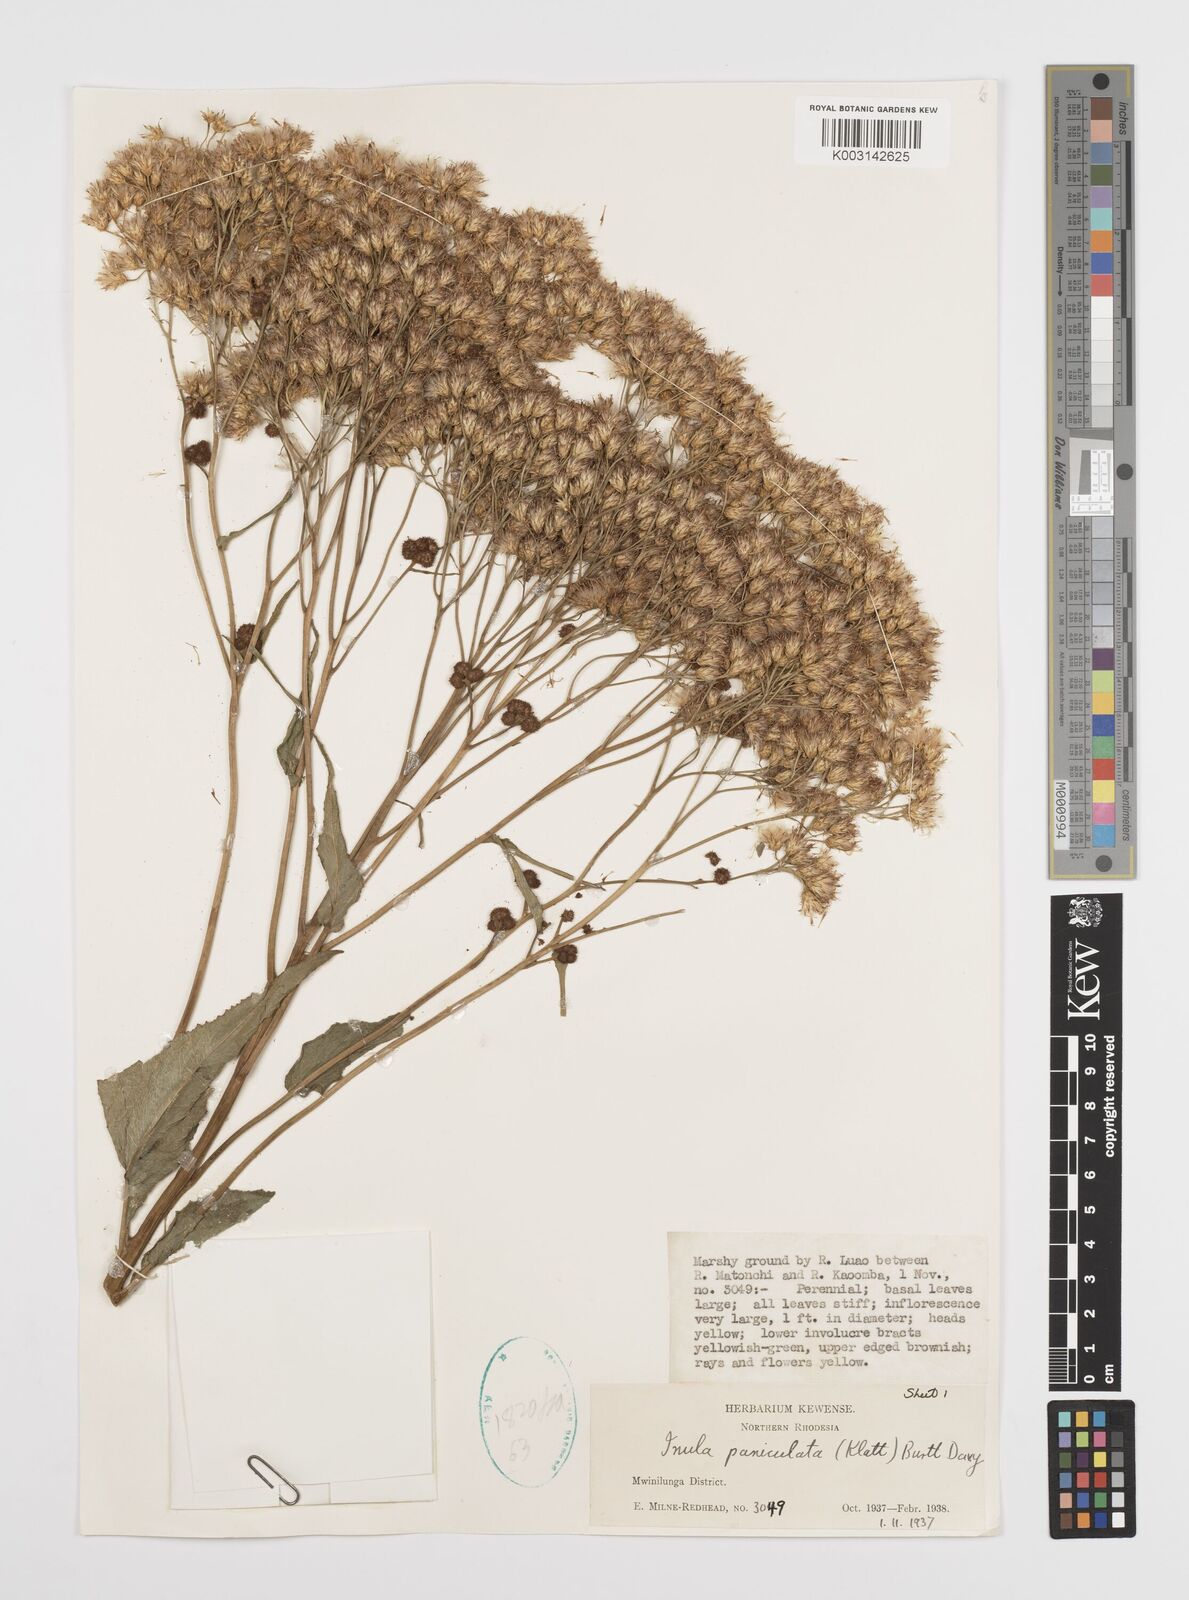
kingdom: Plantae
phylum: Tracheophyta
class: Magnoliopsida
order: Asterales
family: Asteraceae
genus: Monactinocephalus
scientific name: Monactinocephalus paniculatus
